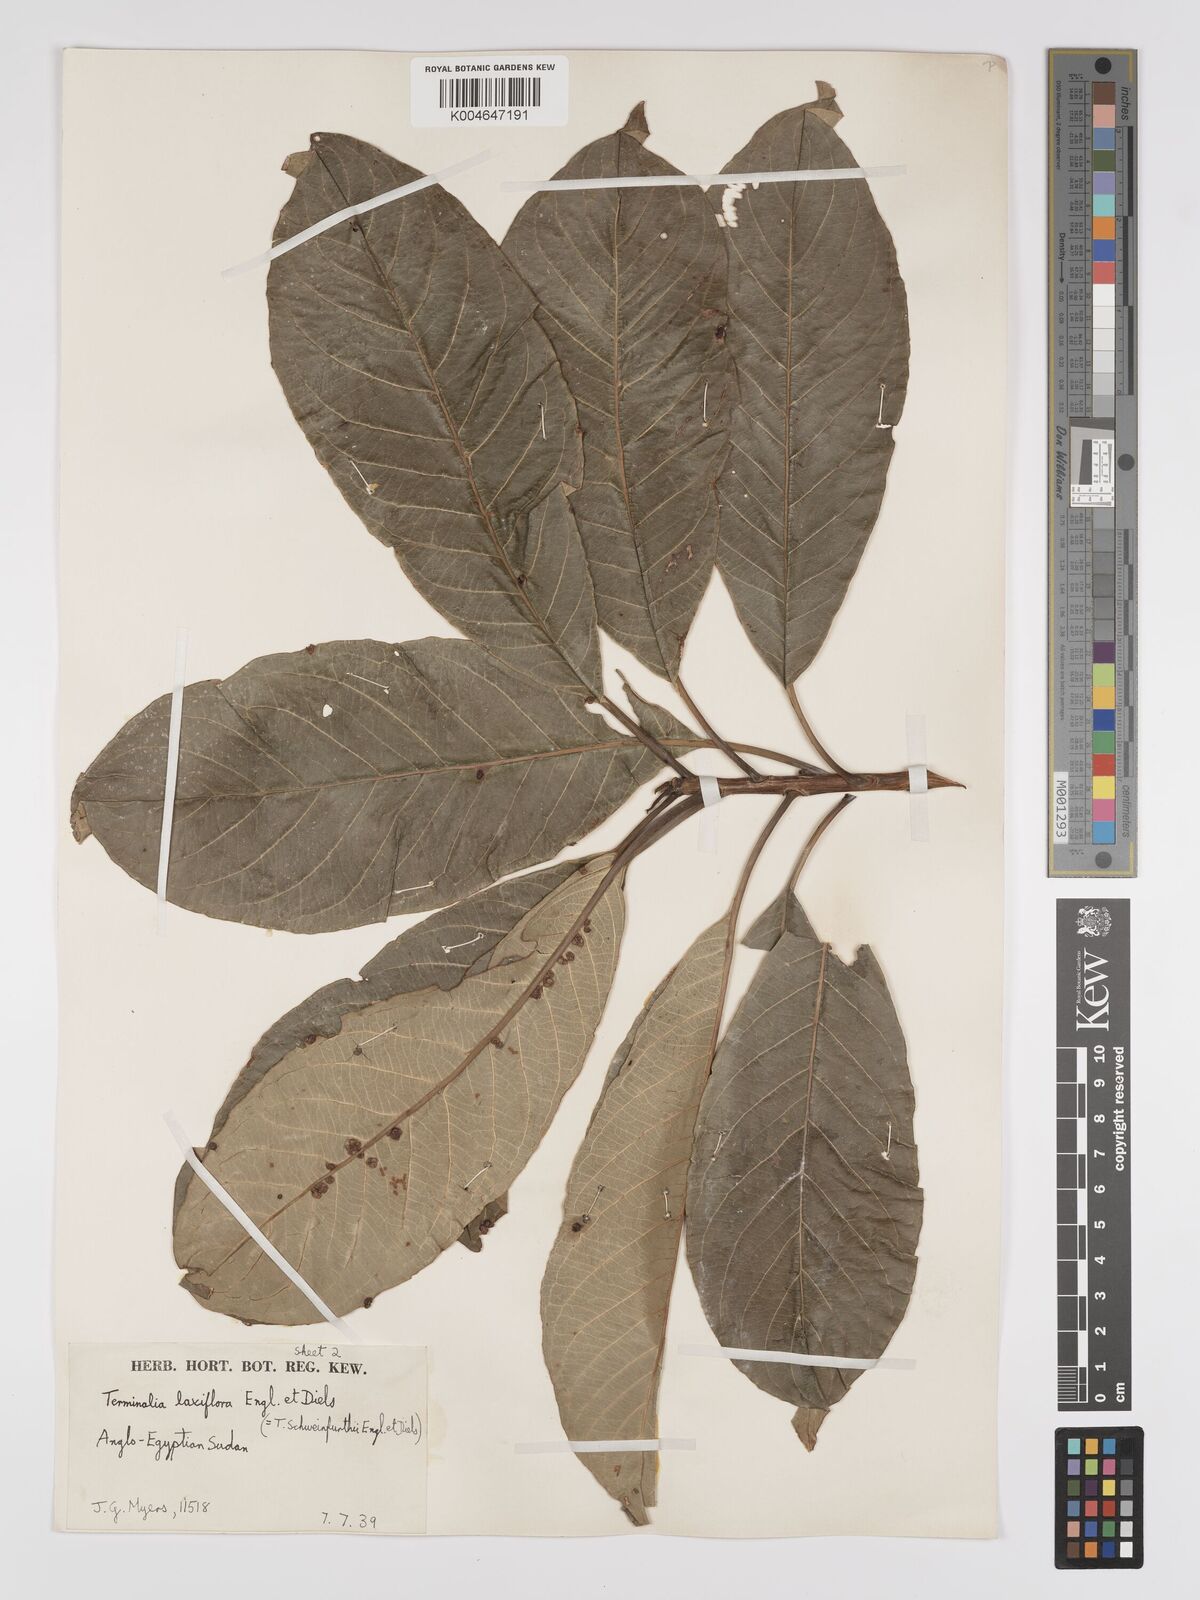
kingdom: Plantae
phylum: Tracheophyta
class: Magnoliopsida
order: Myrtales
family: Combretaceae
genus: Terminalia
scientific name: Terminalia schimperiana
